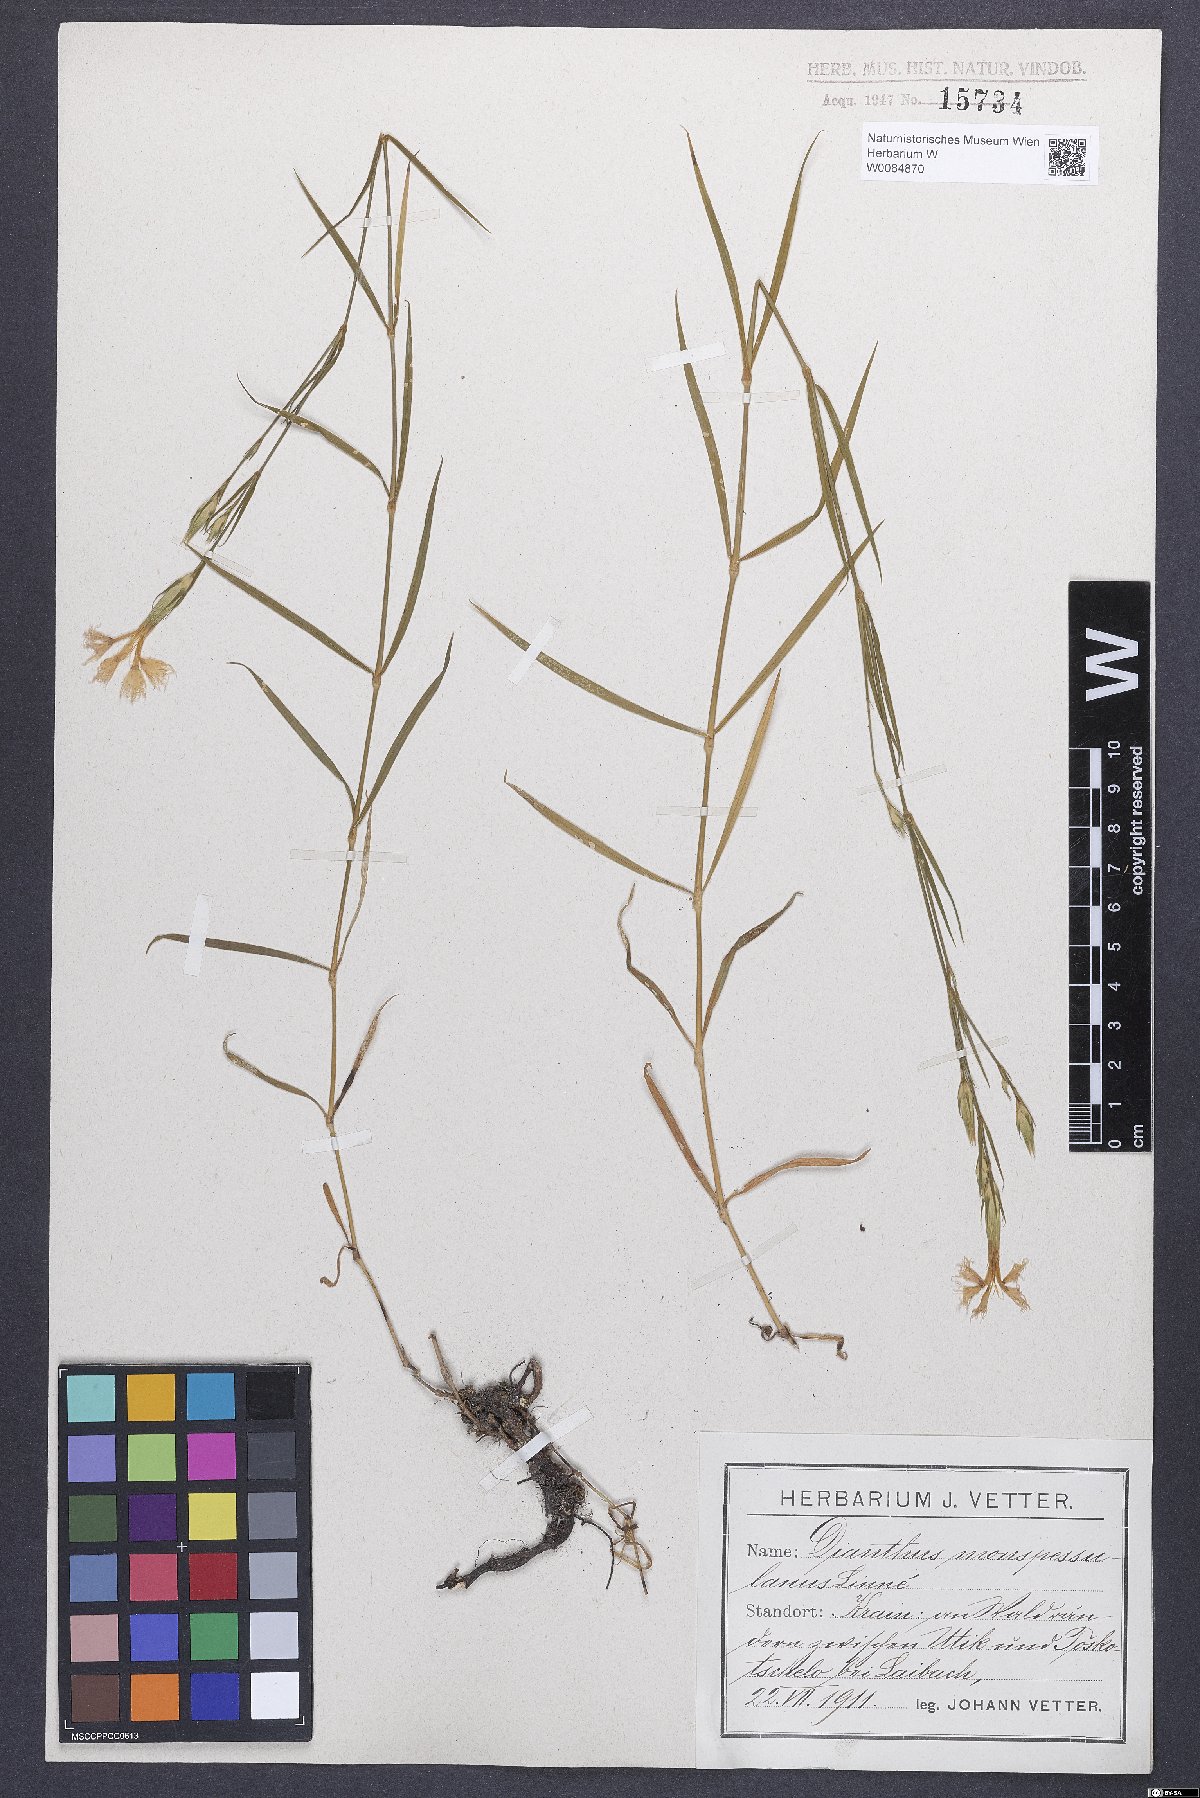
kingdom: Plantae
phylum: Tracheophyta
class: Magnoliopsida
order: Caryophyllales
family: Caryophyllaceae
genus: Dianthus
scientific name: Dianthus hyssopifolius
